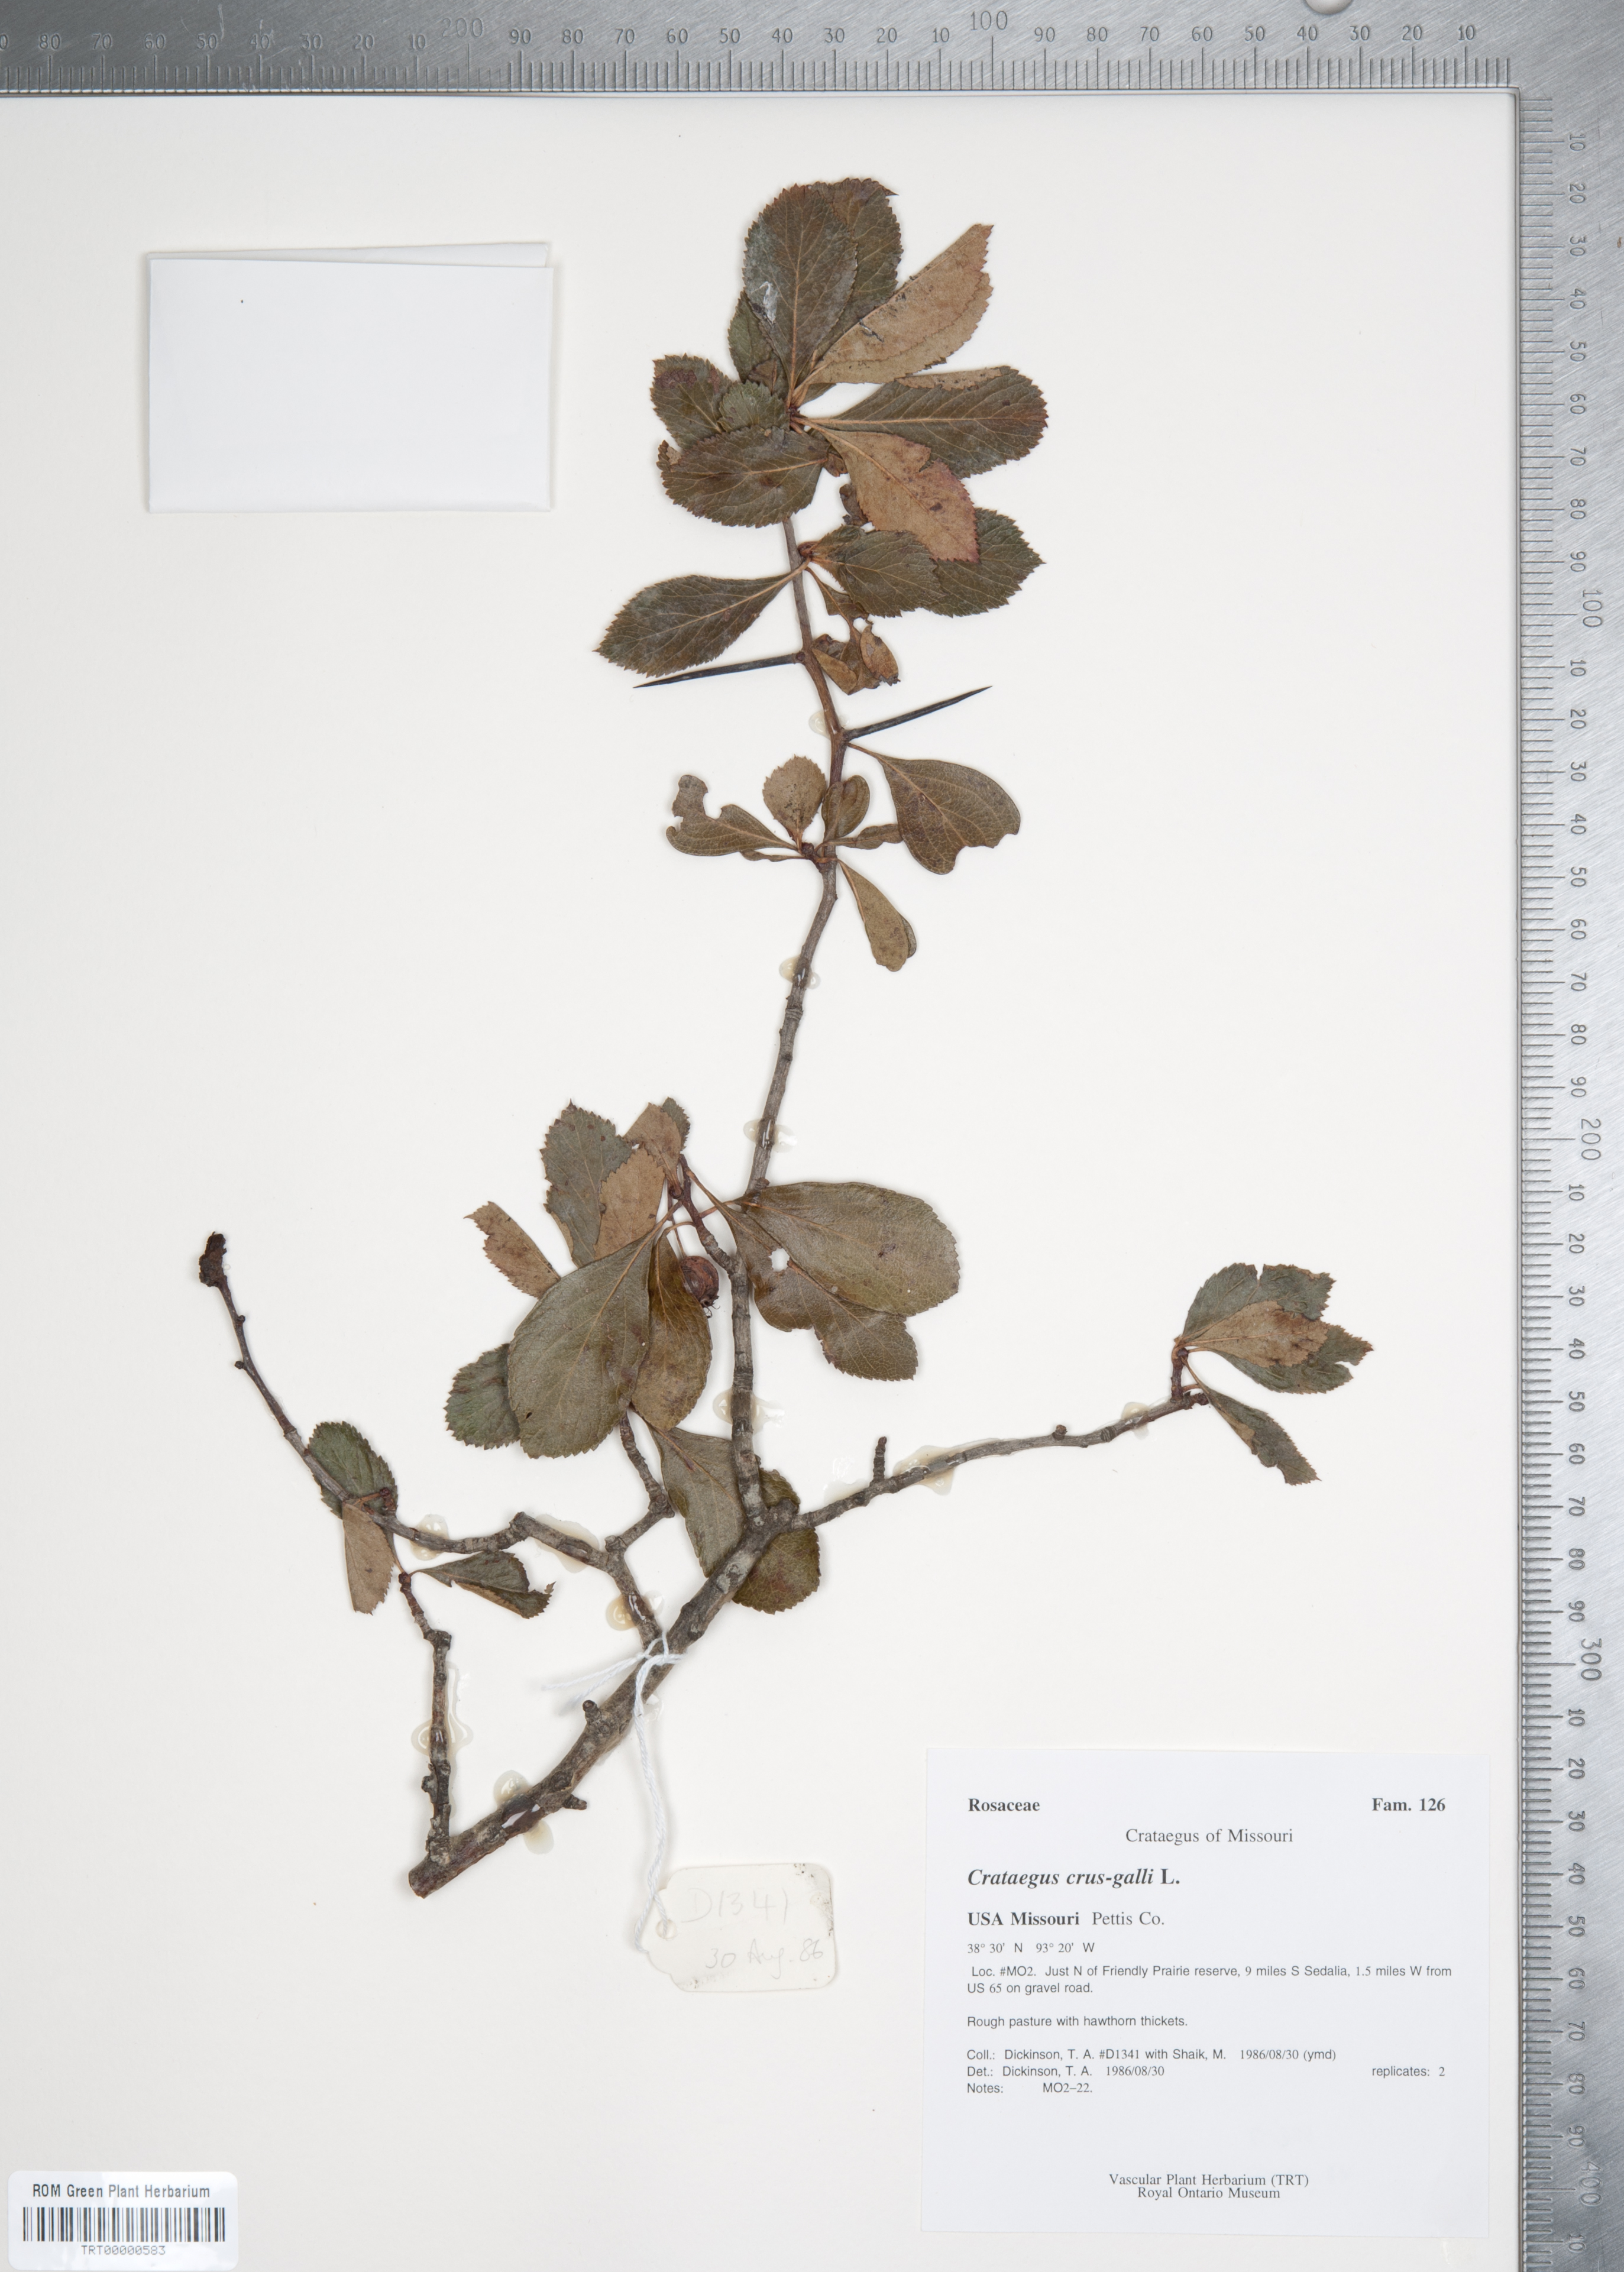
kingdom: Plantae
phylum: Tracheophyta
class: Magnoliopsida
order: Rosales
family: Rosaceae
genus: Crataegus
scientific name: Crataegus crus-galli
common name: Cockspurthorn
